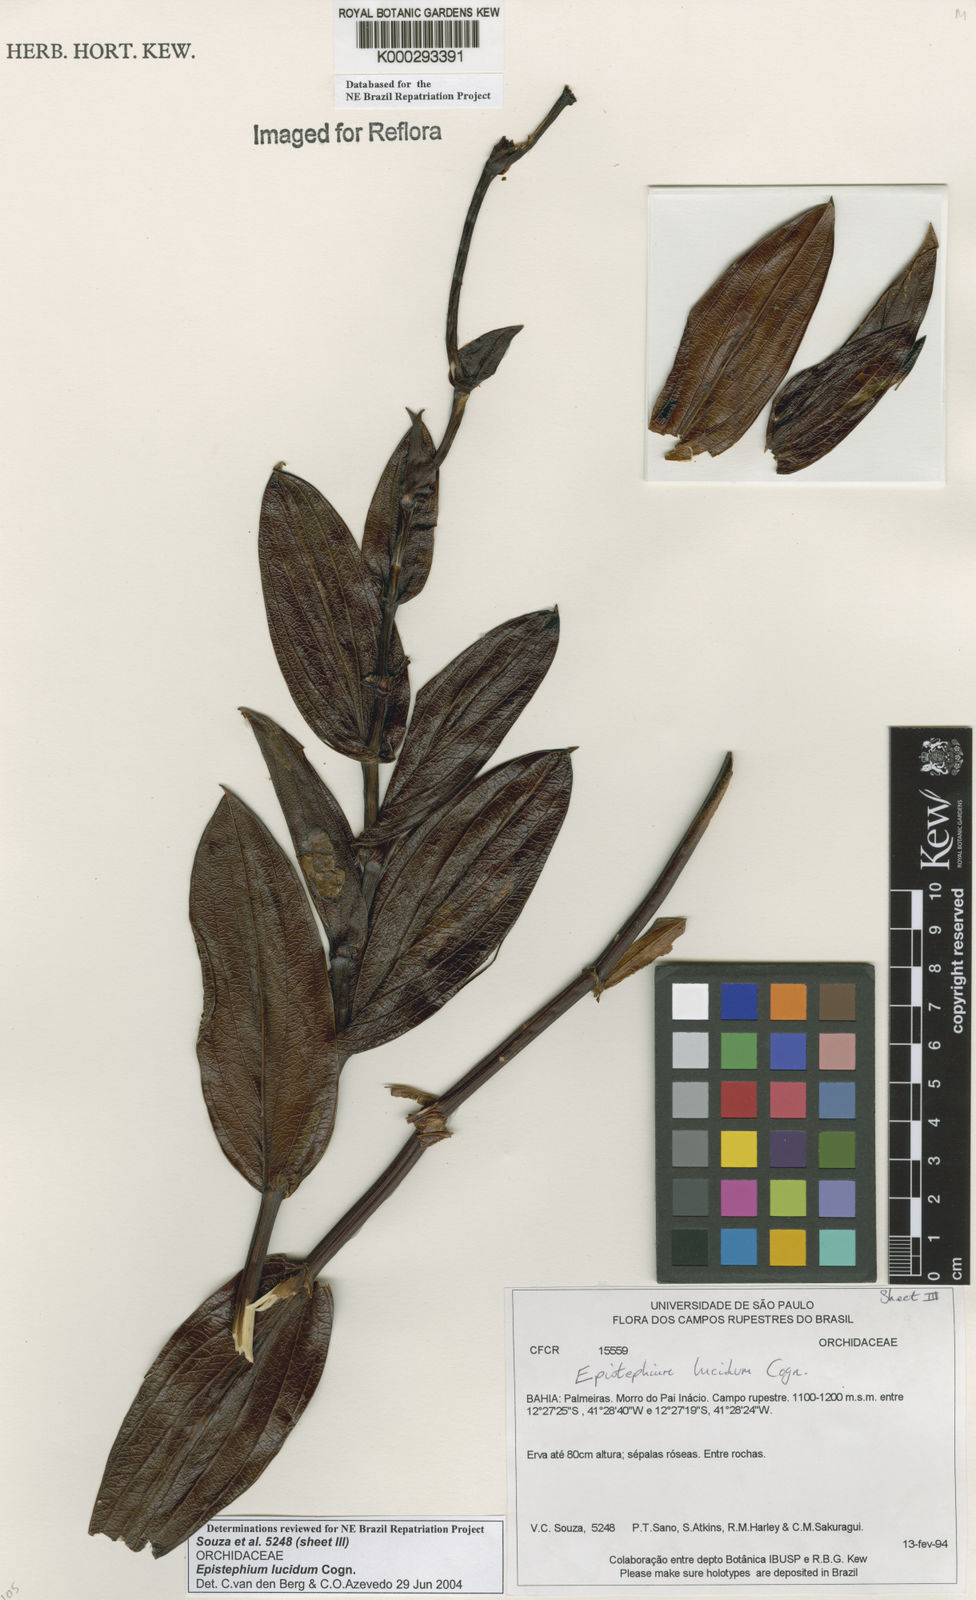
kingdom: Plantae
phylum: Tracheophyta
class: Liliopsida
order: Asparagales
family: Orchidaceae
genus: Epistephium
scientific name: Epistephium williamsii
